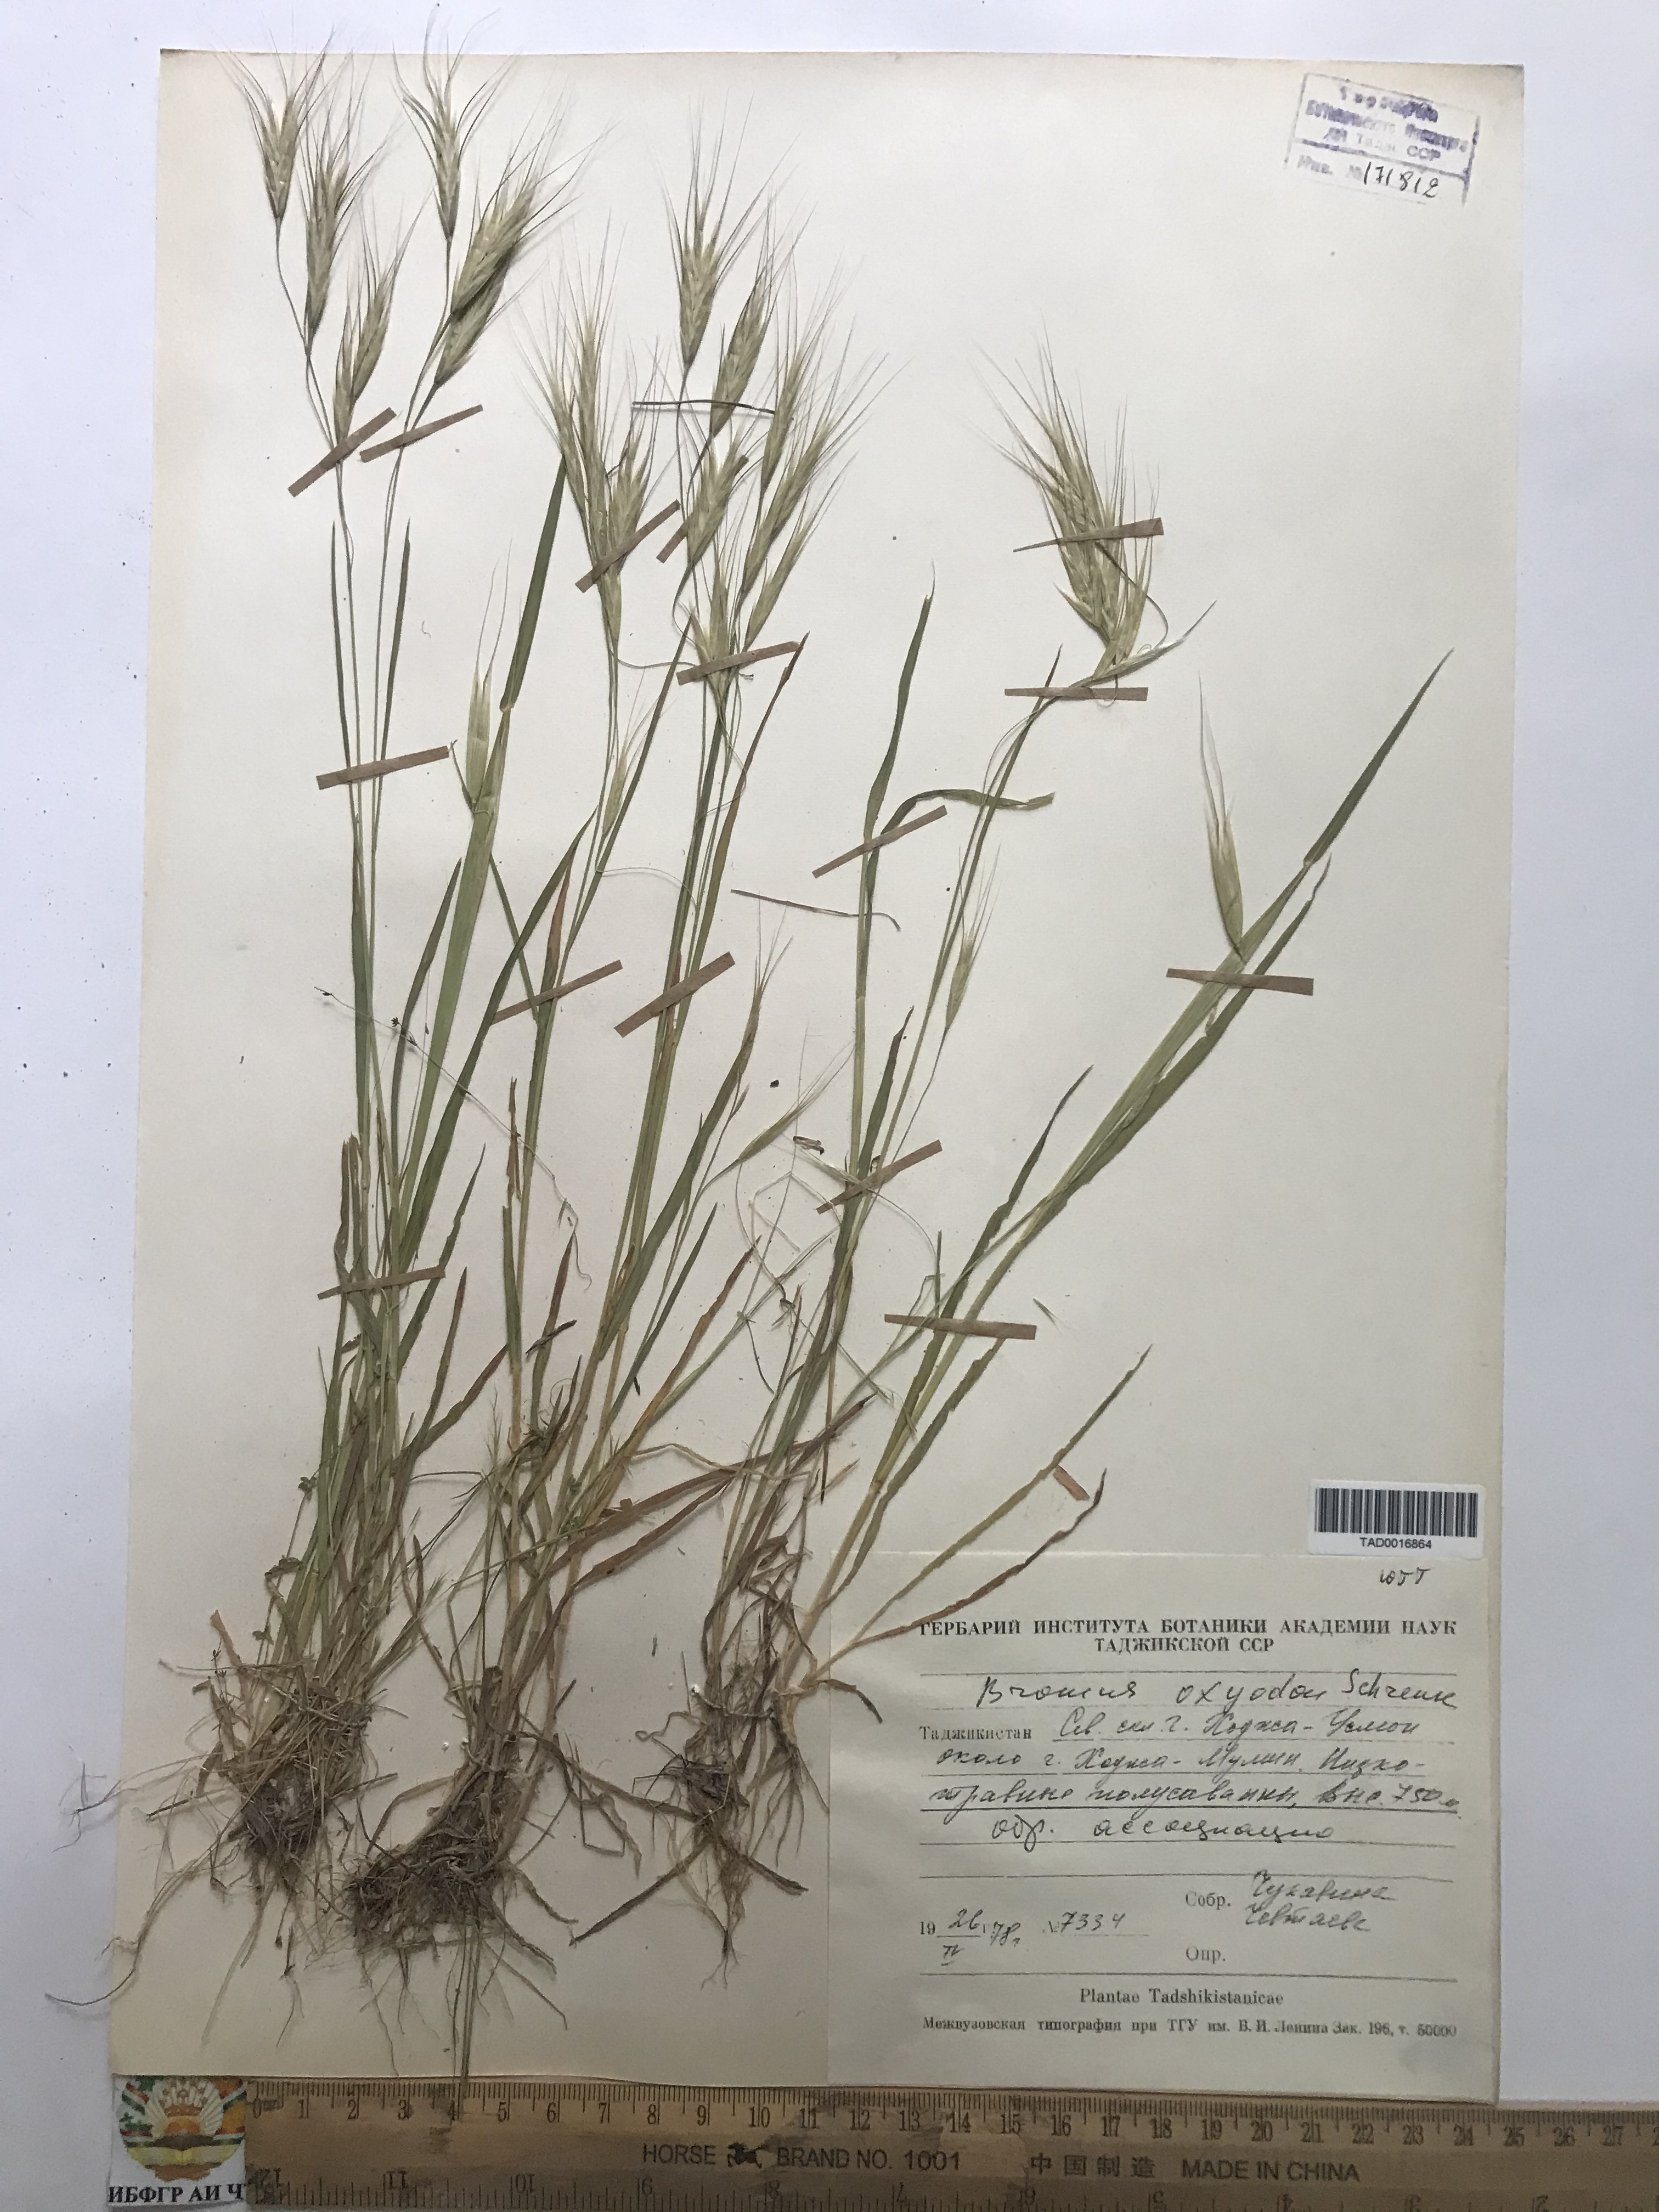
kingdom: Plantae
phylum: Tracheophyta
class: Liliopsida
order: Poales
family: Poaceae
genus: Bromus
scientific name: Bromus oxyodon
